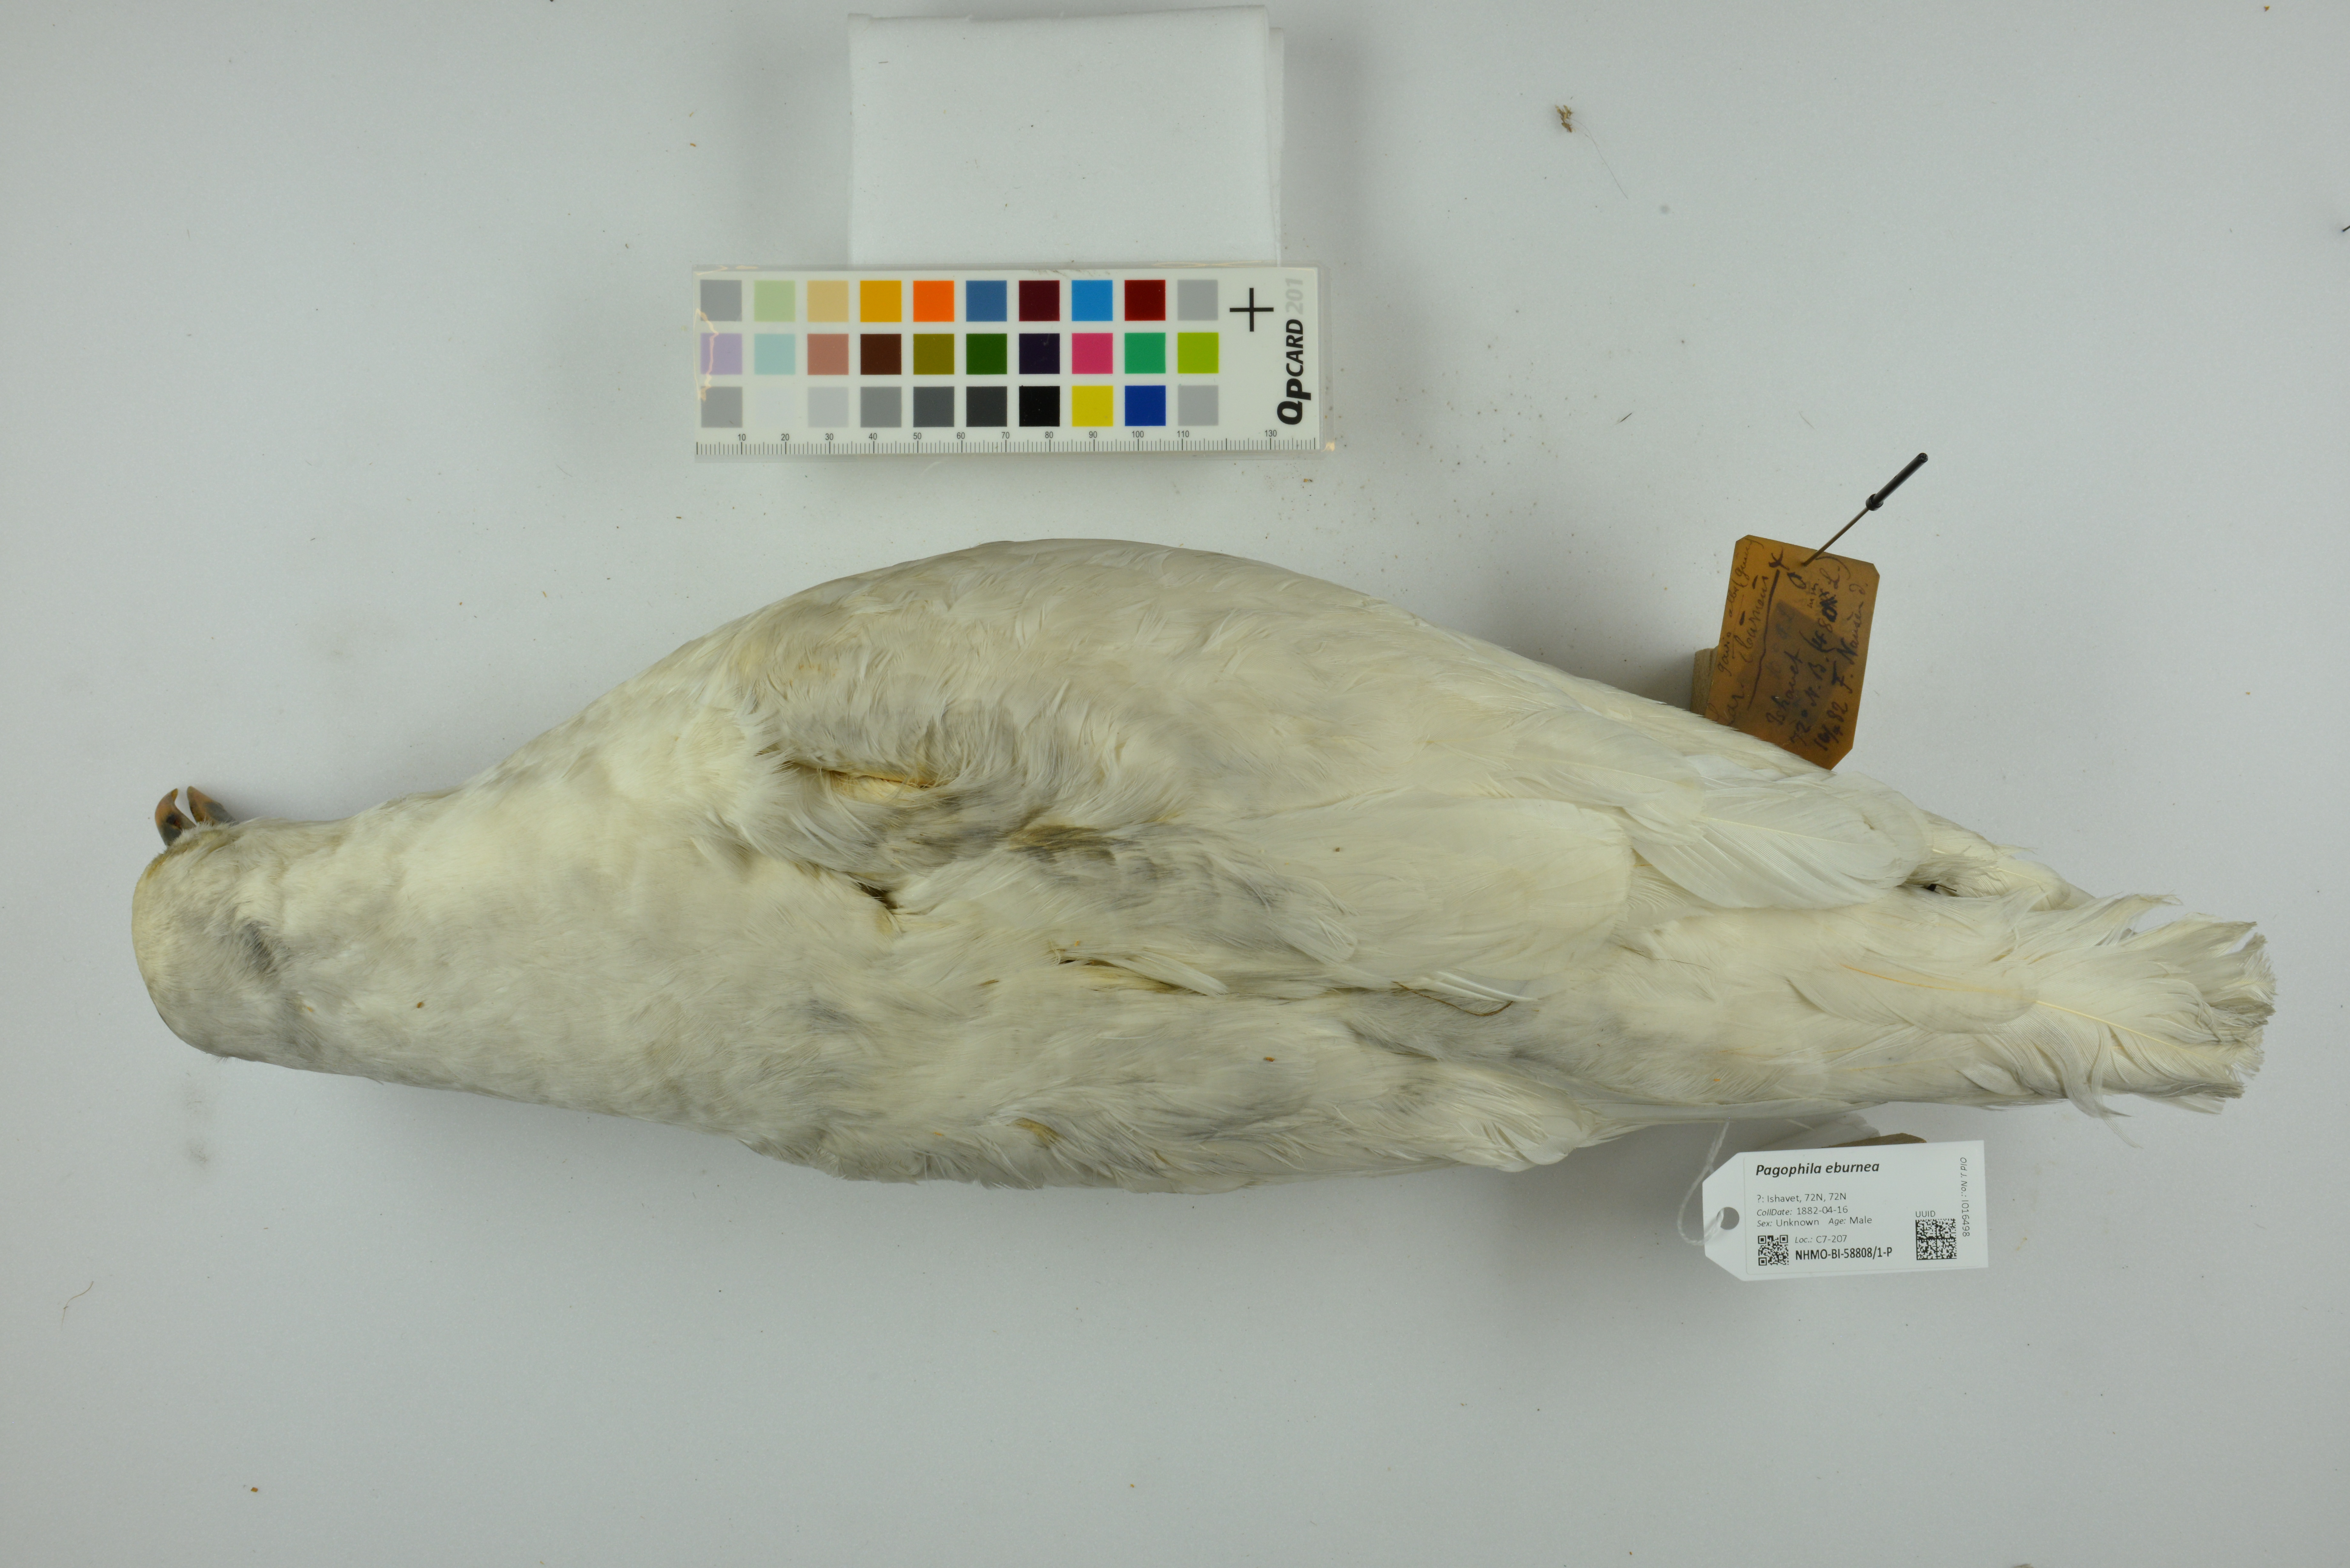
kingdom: Animalia
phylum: Chordata
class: Aves
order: Charadriiformes
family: Laridae
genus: Pagophila
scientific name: Pagophila eburnea
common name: Ivory gull
